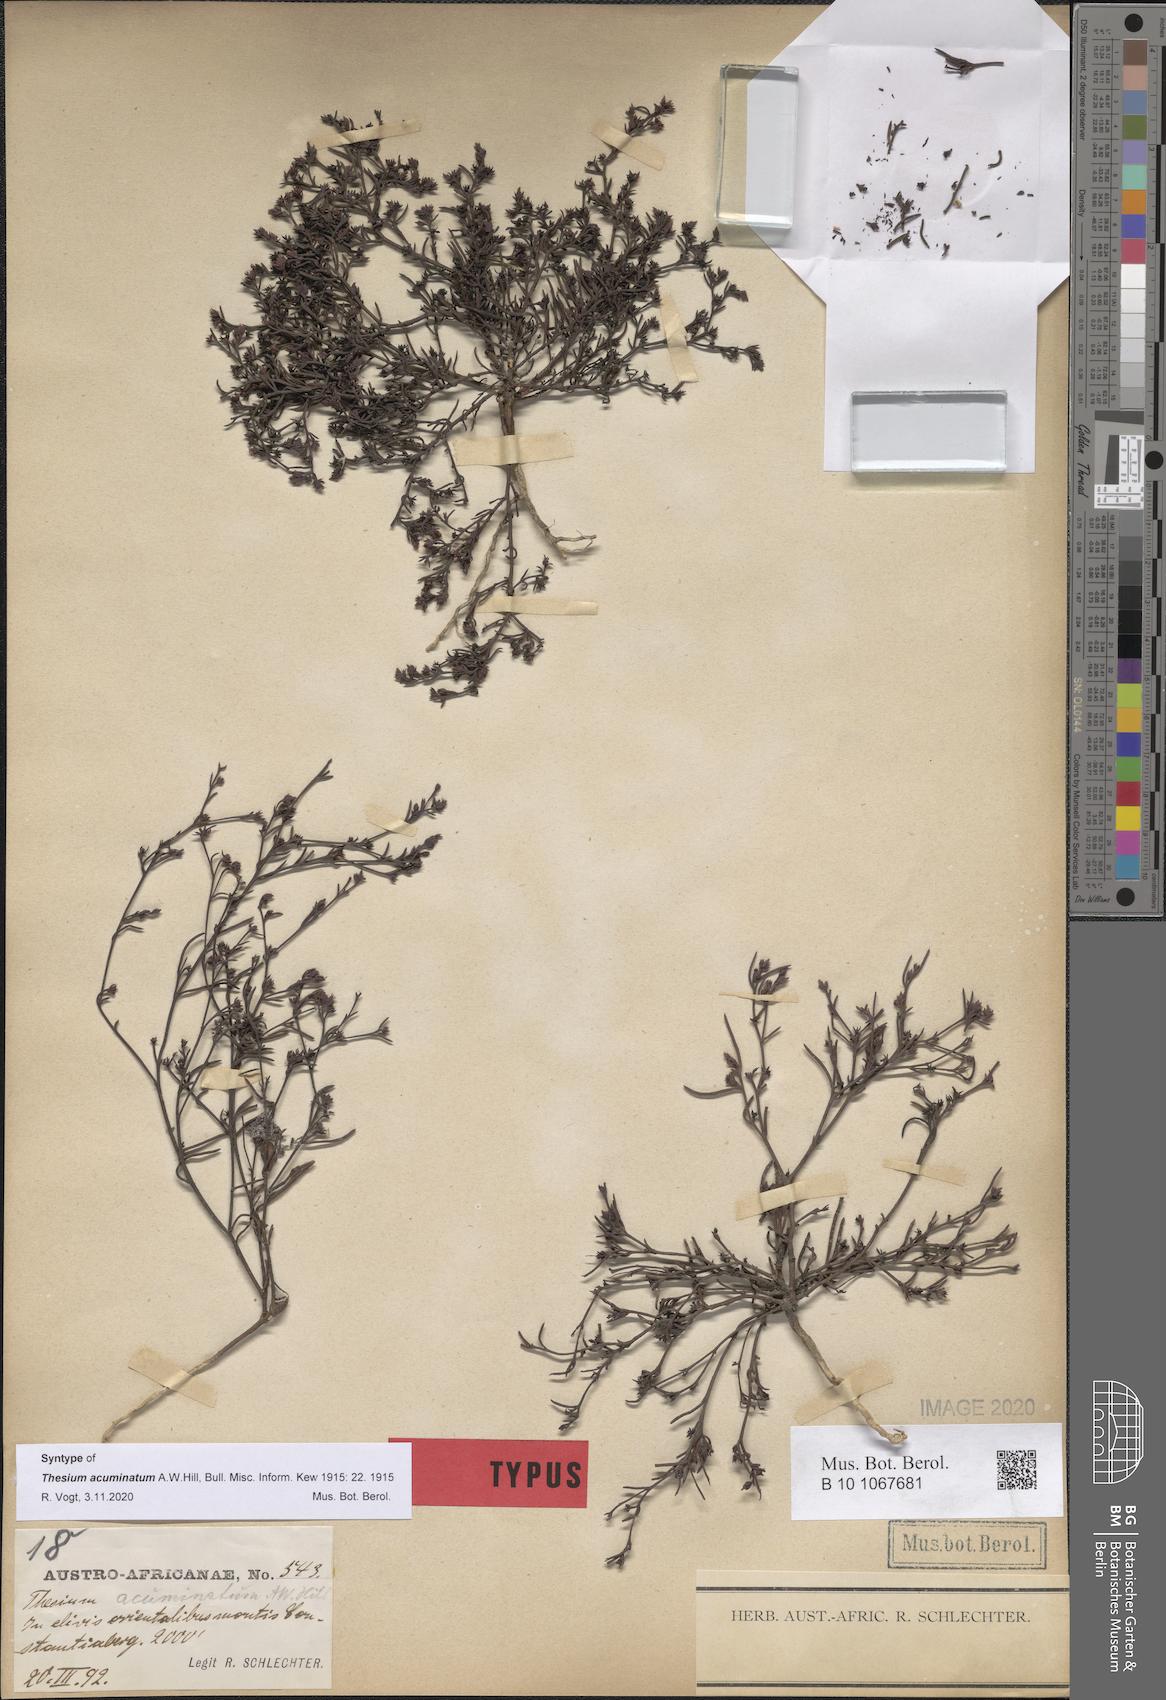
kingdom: Plantae
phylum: Tracheophyta
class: Magnoliopsida
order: Santalales
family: Thesiaceae
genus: Thesium
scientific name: Thesium acuminatum
